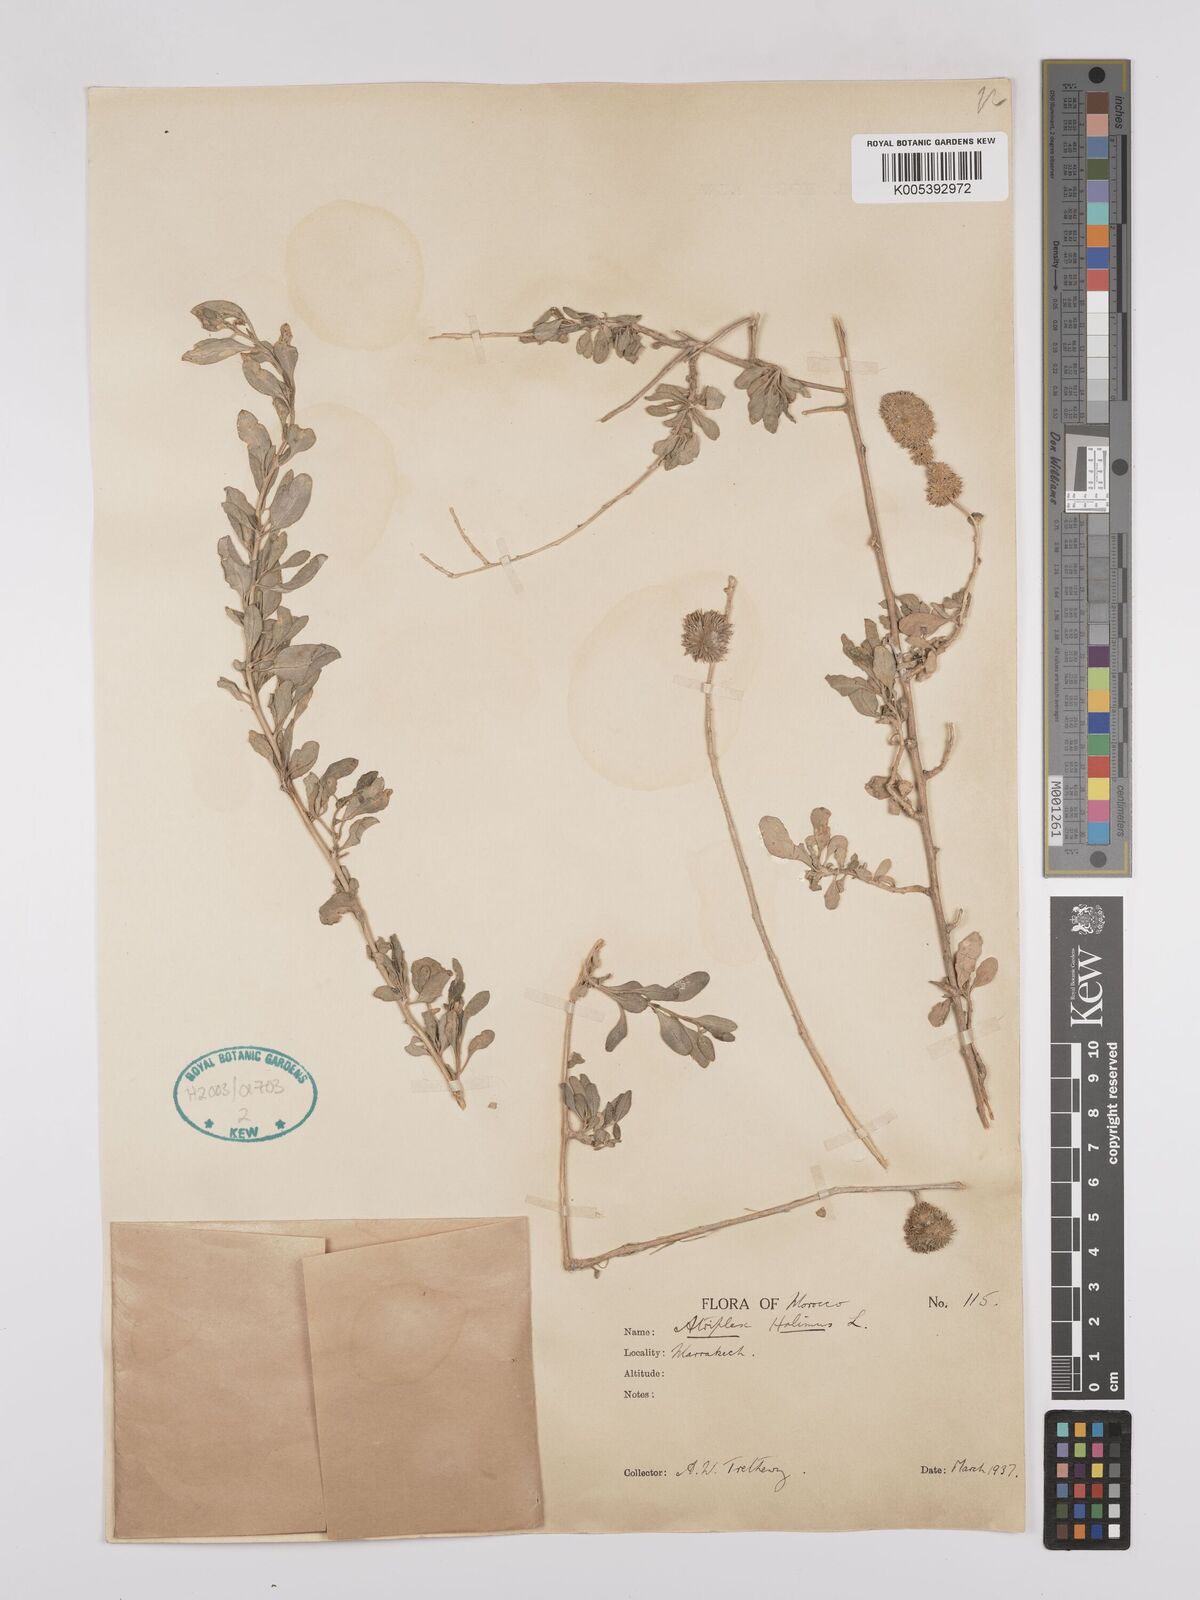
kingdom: Plantae
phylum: Tracheophyta
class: Magnoliopsida
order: Caryophyllales
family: Amaranthaceae
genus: Atriplex
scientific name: Atriplex
